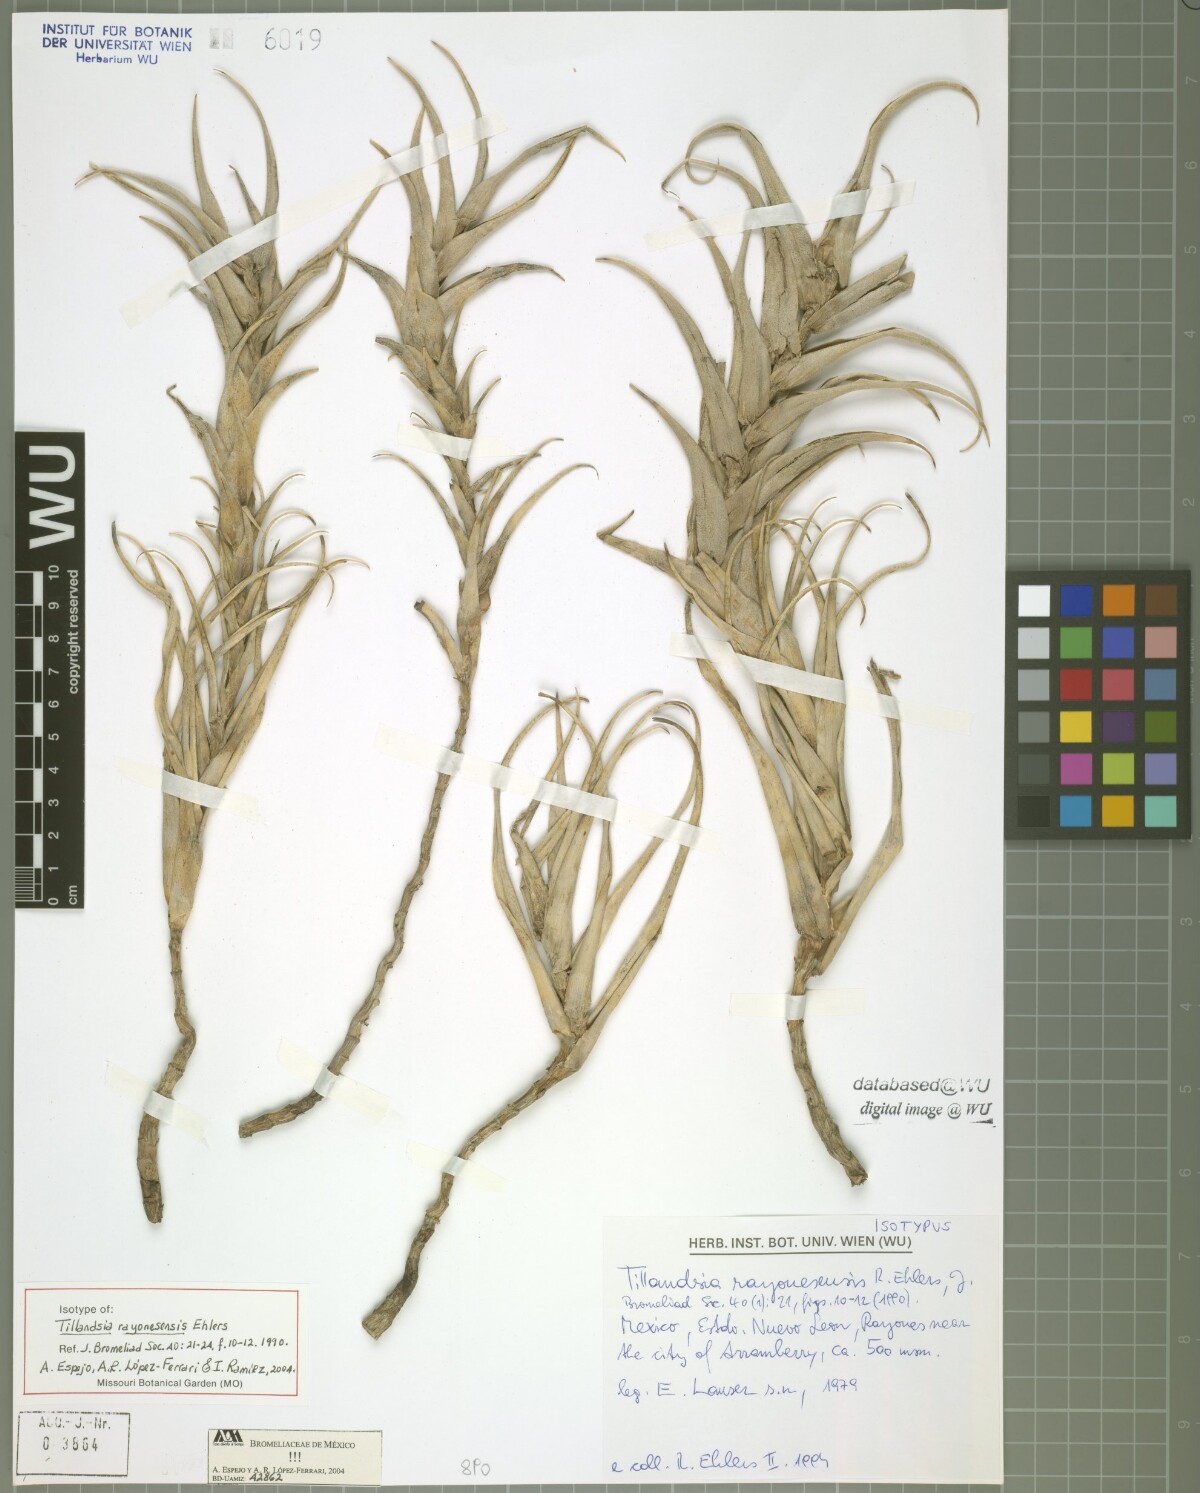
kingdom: Plantae
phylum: Tracheophyta
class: Liliopsida
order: Poales
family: Bromeliaceae
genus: Tillandsia
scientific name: Tillandsia roseoscapa
